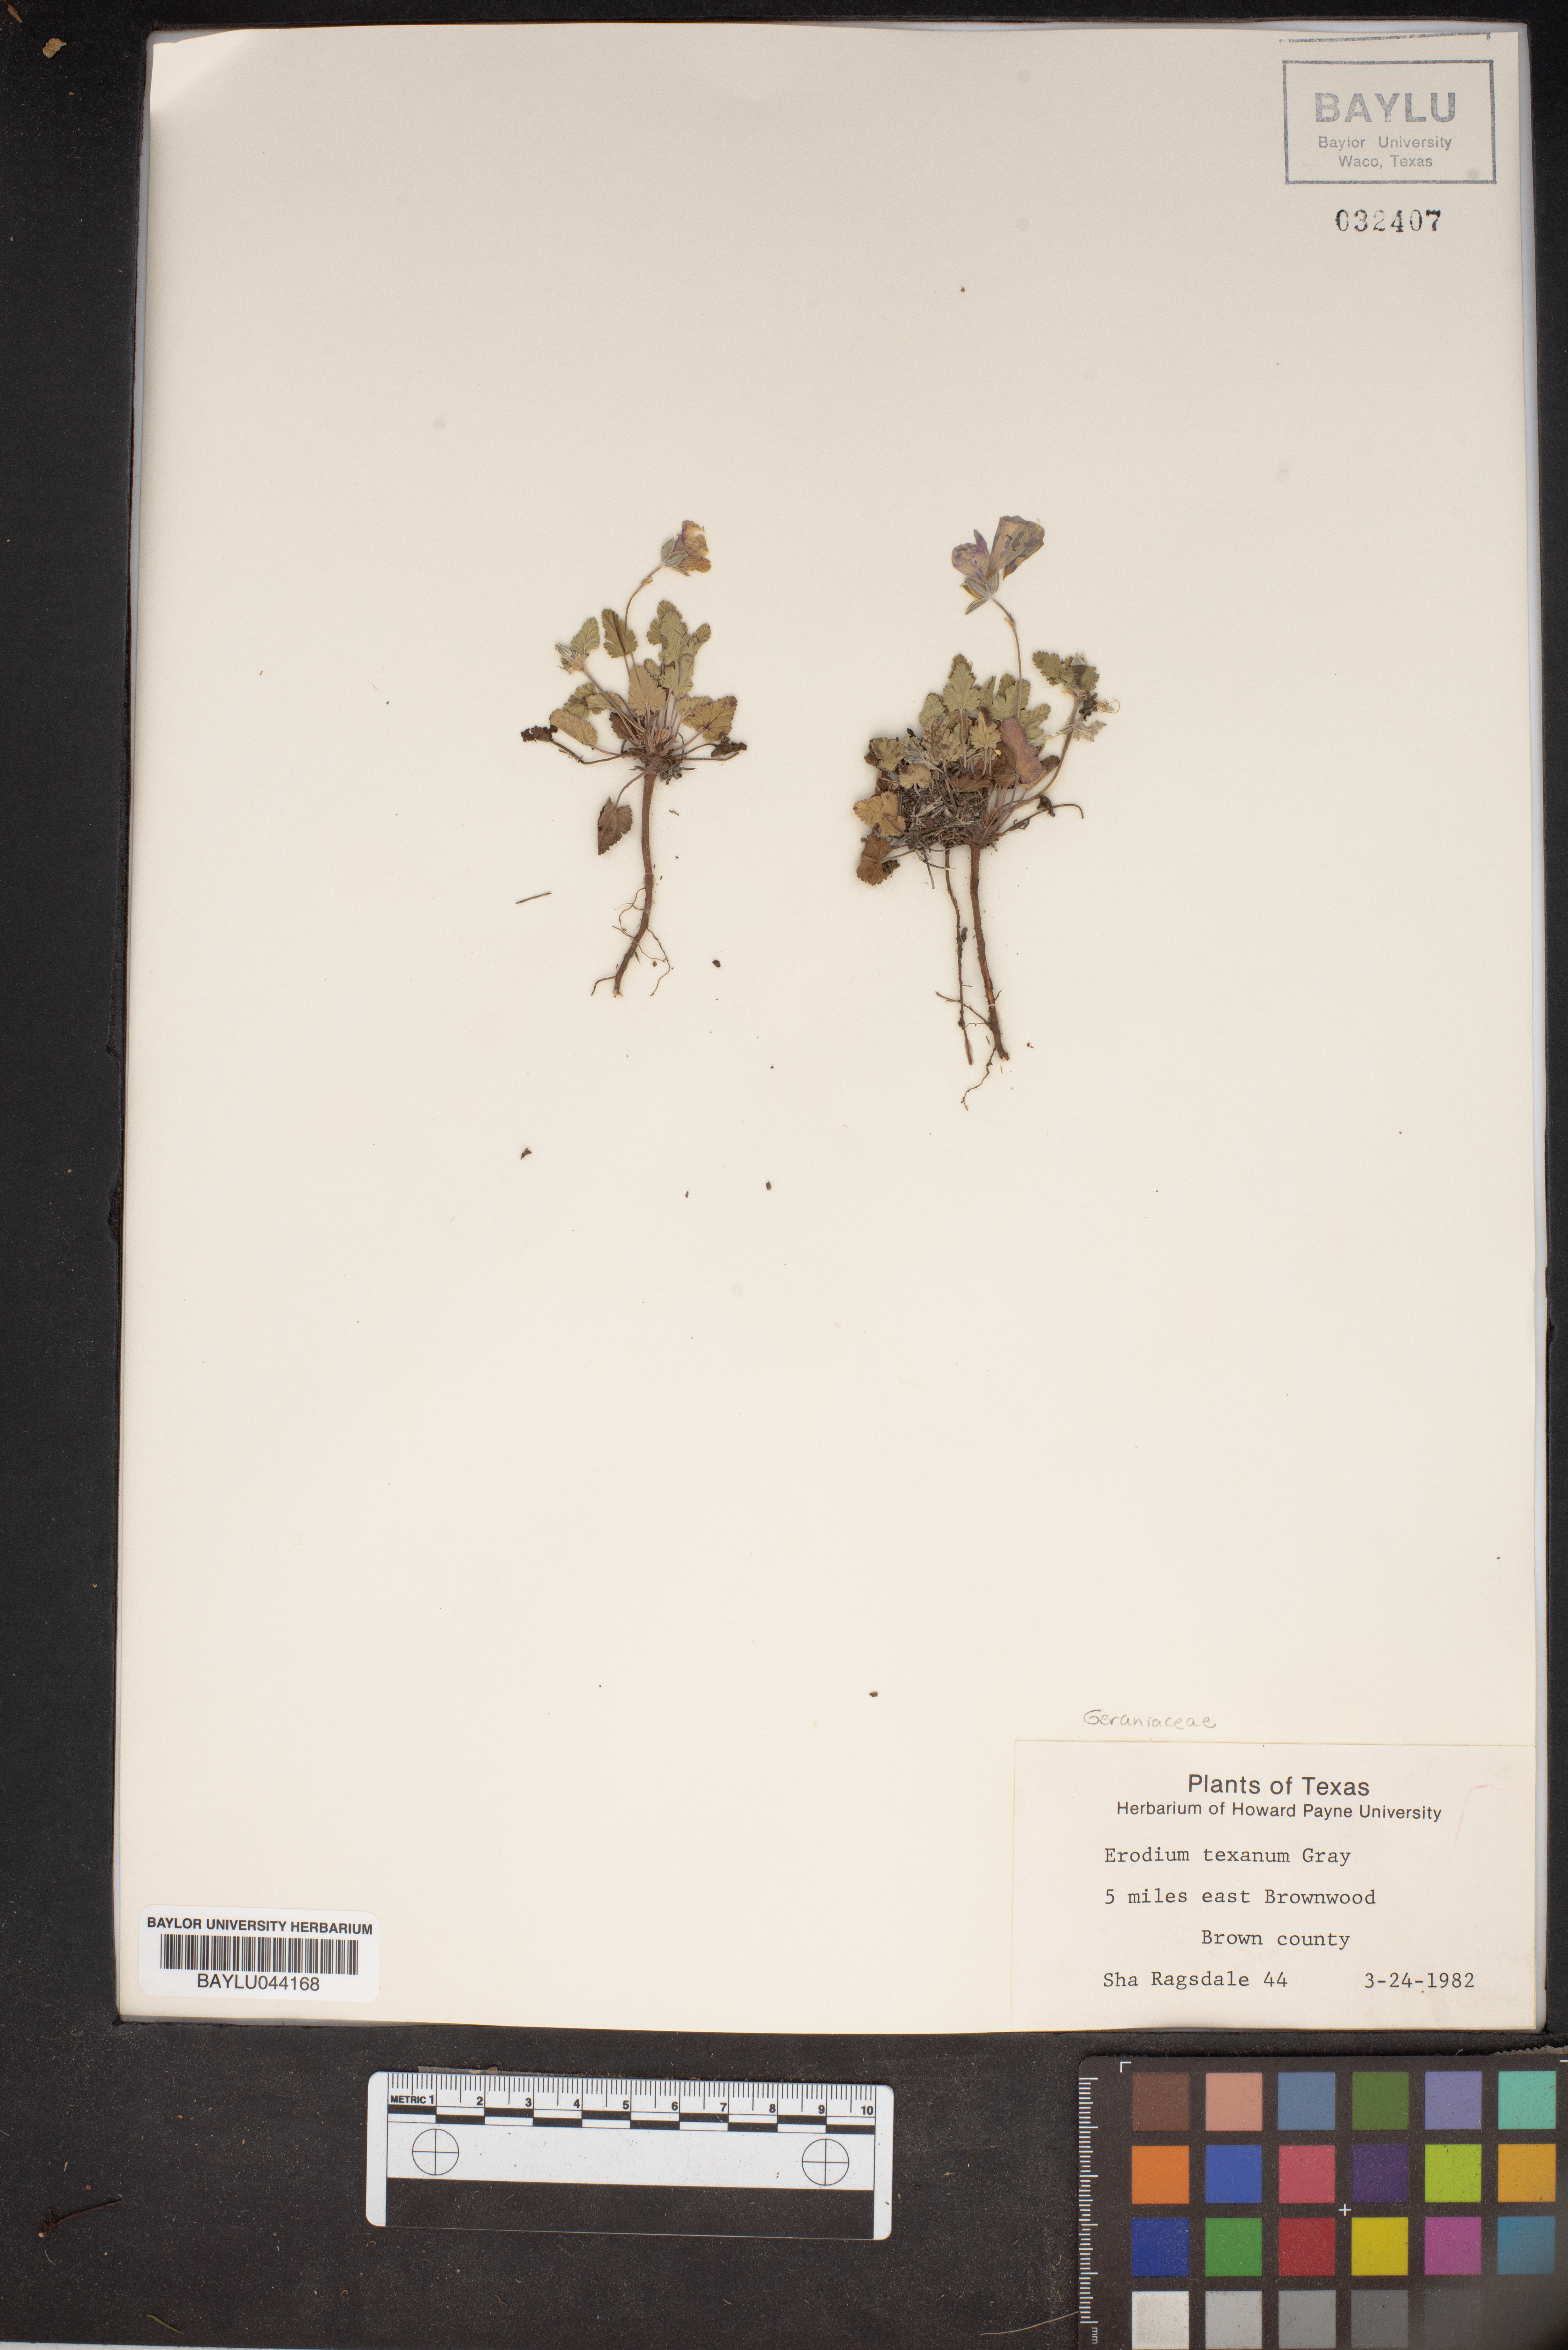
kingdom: Plantae
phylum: Tracheophyta
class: Magnoliopsida
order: Geraniales
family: Geraniaceae
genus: Erodium
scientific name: Erodium texanum
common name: Texas stork's-bill
